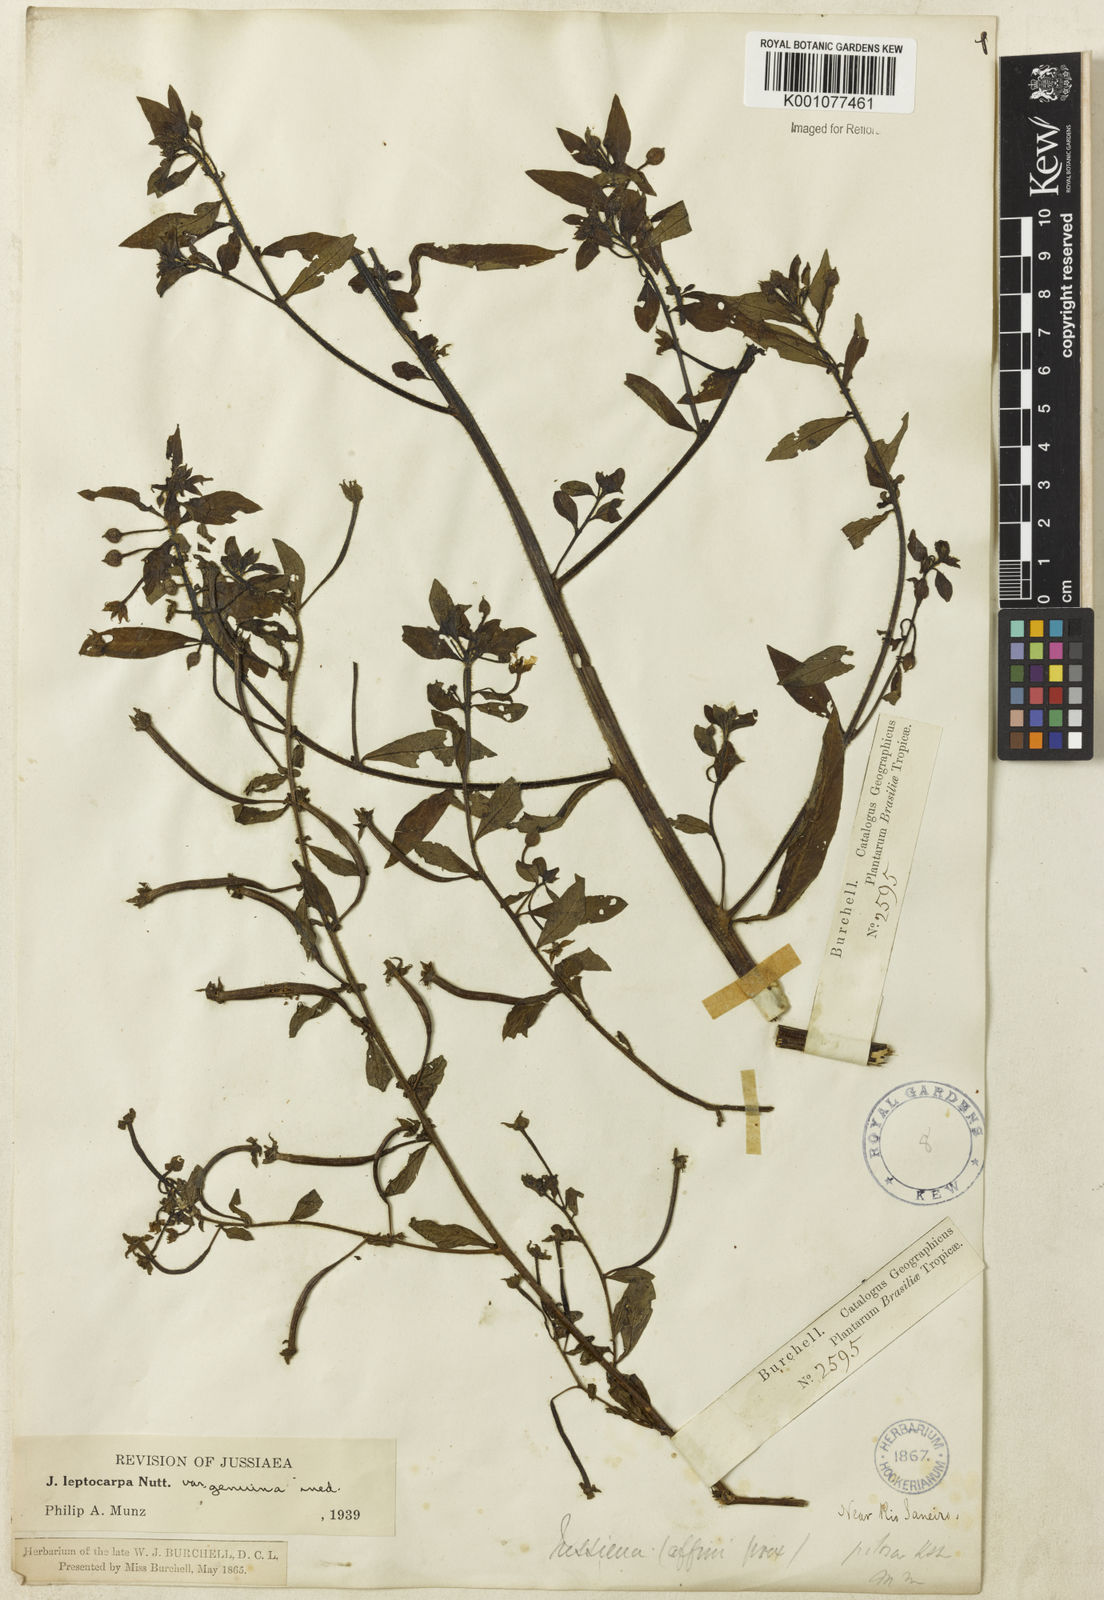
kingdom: Plantae
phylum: Tracheophyta
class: Magnoliopsida
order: Myrtales
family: Onagraceae
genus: Ludwigia
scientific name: Ludwigia leptocarpa
